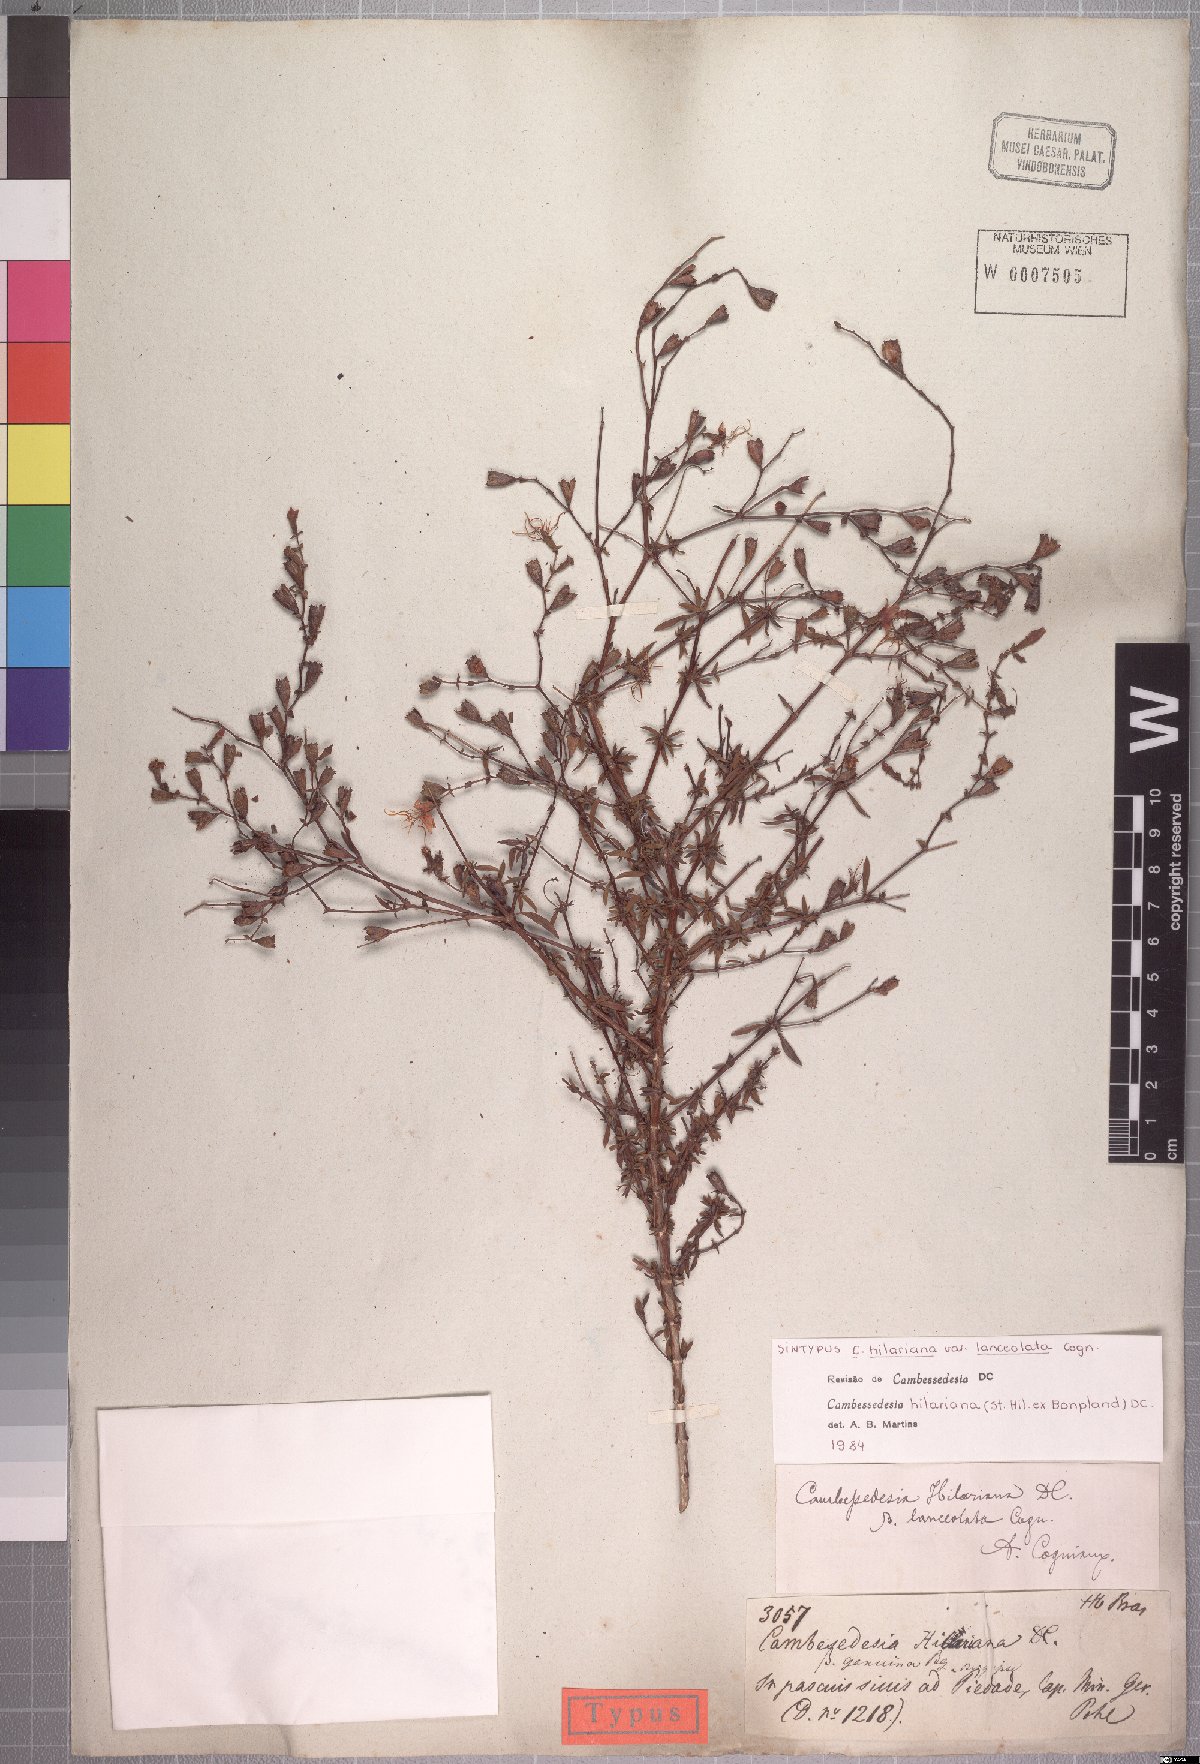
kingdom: Plantae
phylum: Tracheophyta
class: Magnoliopsida
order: Myrtales
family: Melastomataceae
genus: Cambessedesia
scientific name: Cambessedesia hilariana
